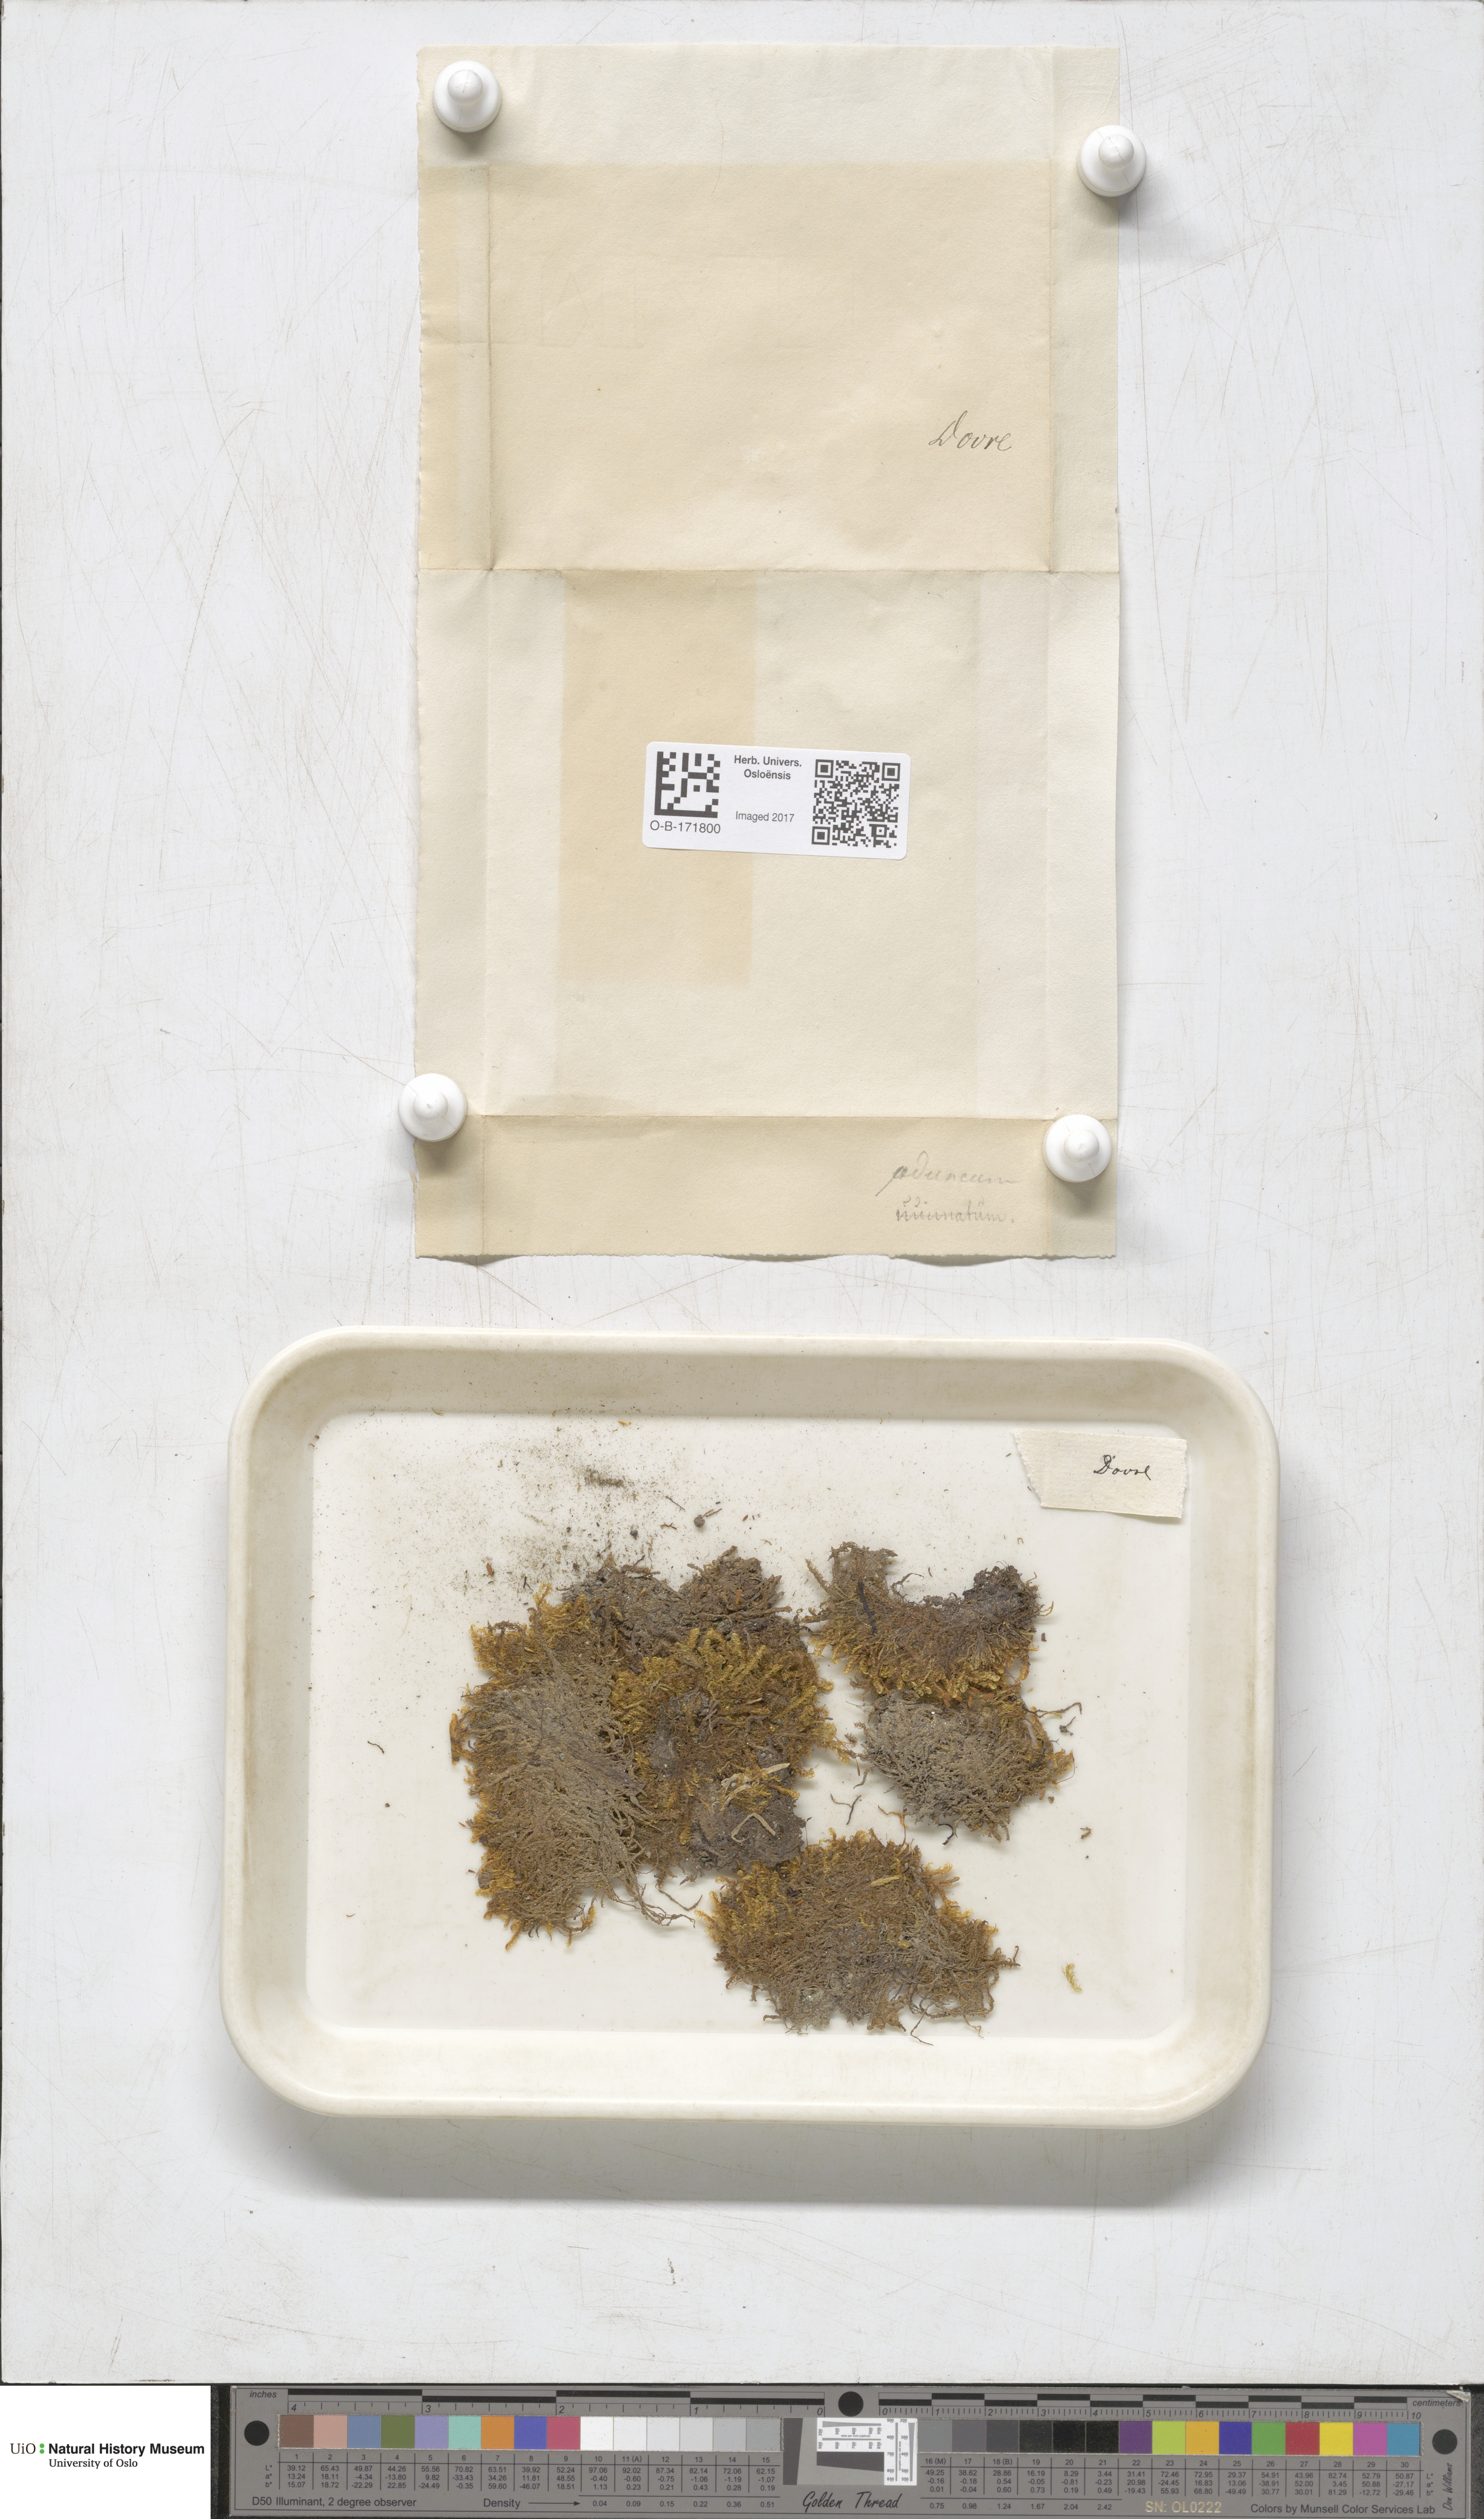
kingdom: Plantae
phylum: Bryophyta
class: Bryopsida
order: Hypnales
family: Amblystegiaceae
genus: Drepanocladus
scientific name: Drepanocladus aduncus
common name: Knieff's hook moss
